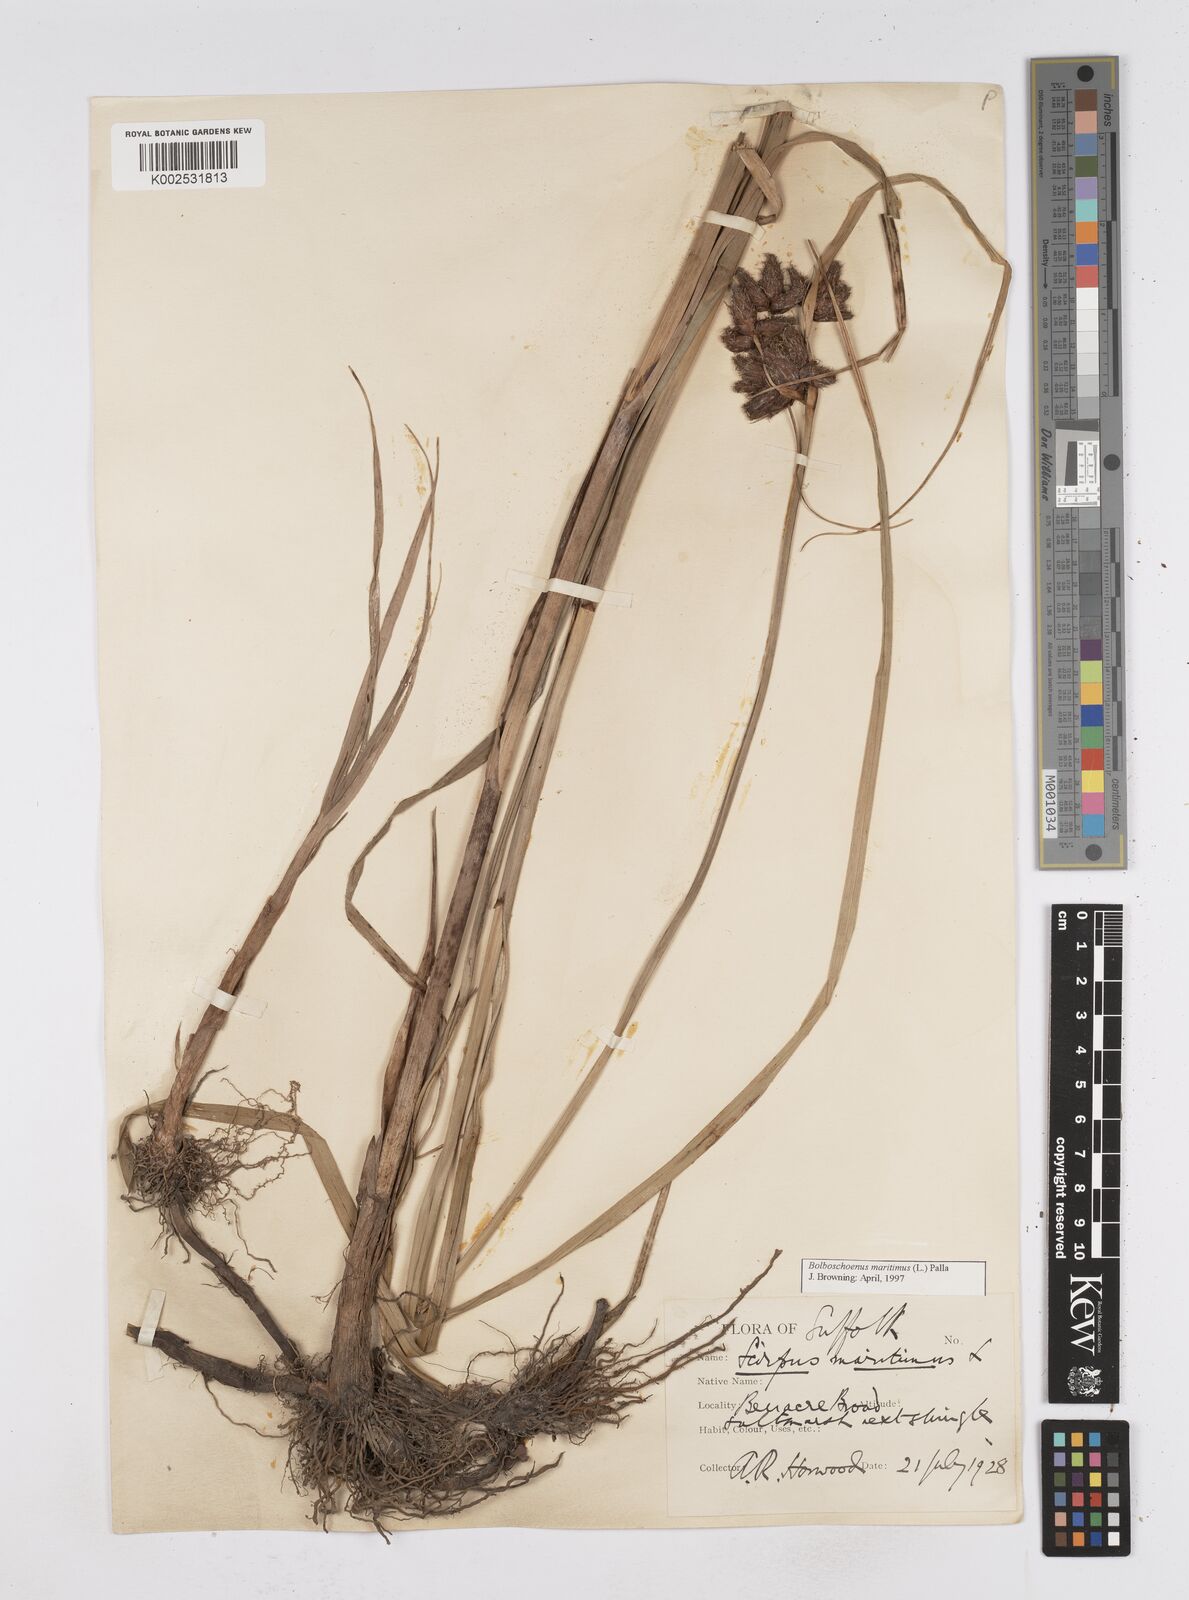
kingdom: Plantae
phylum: Tracheophyta
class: Liliopsida
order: Poales
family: Cyperaceae
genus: Bolboschoenus
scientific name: Bolboschoenus maritimus
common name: Sea club-rush
